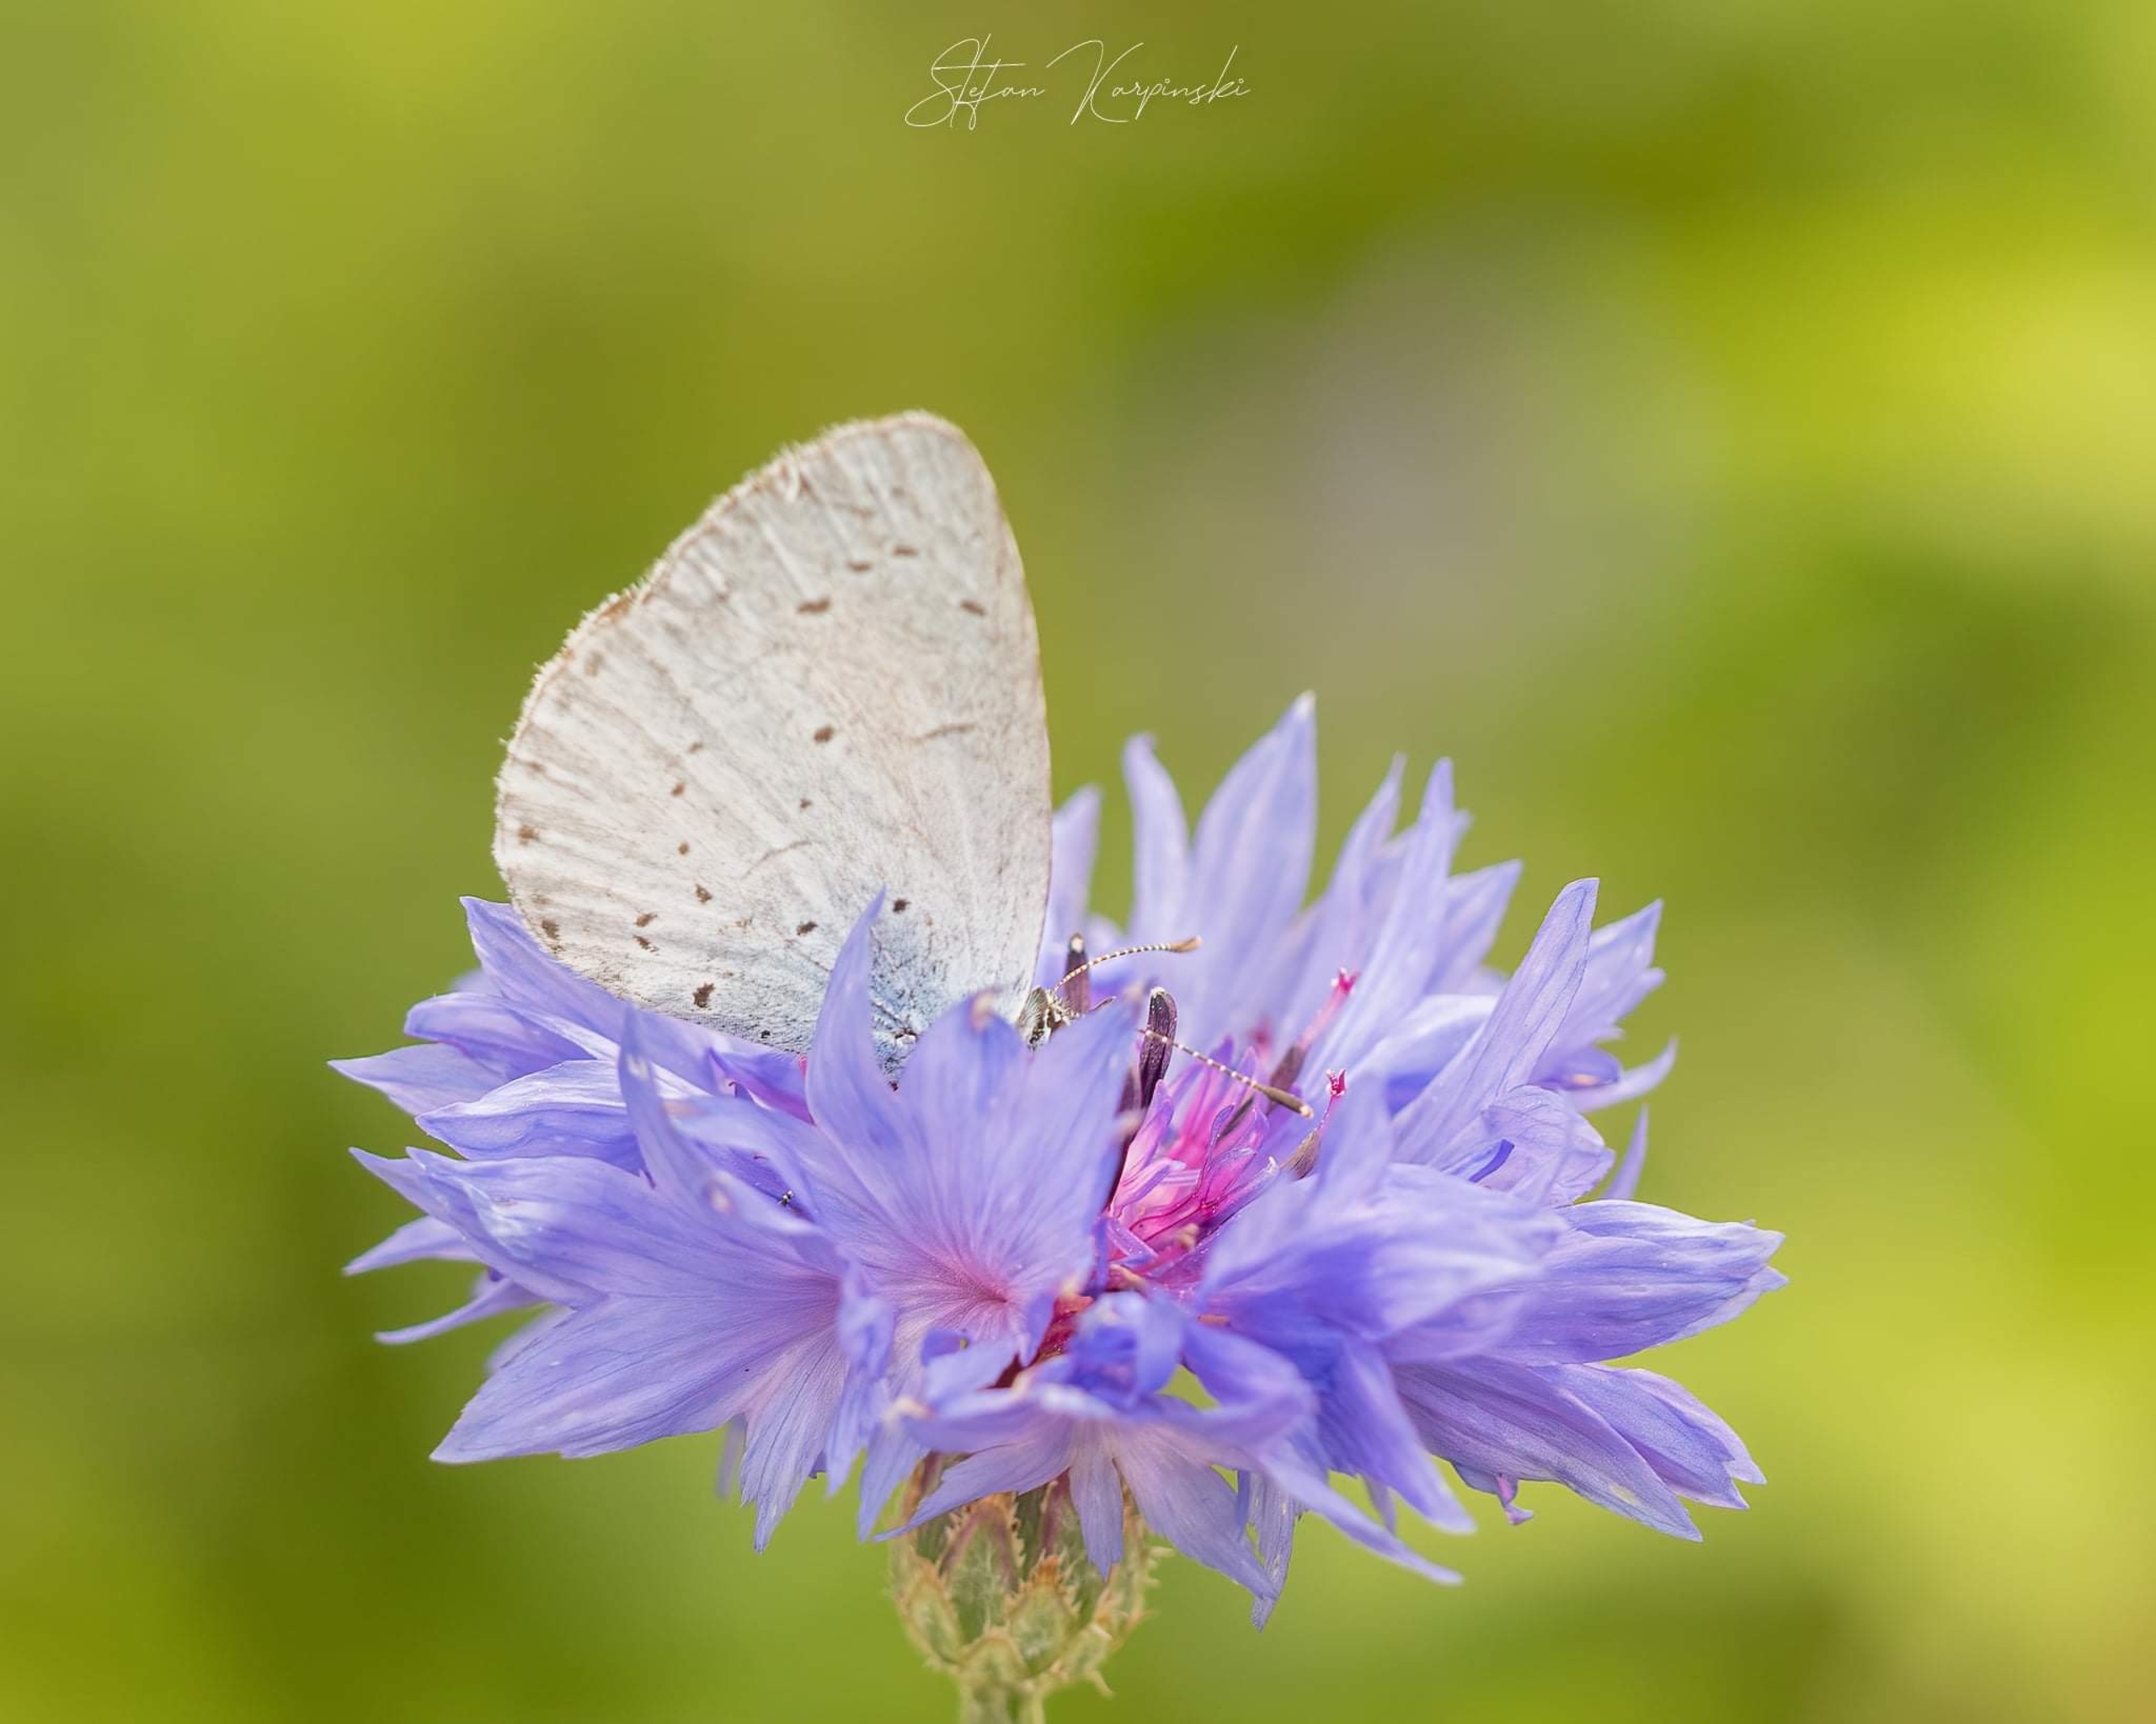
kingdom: Animalia
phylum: Arthropoda
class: Insecta
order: Lepidoptera
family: Lycaenidae
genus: Celastrina
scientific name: Celastrina argiolus
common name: Skovblåfugl
